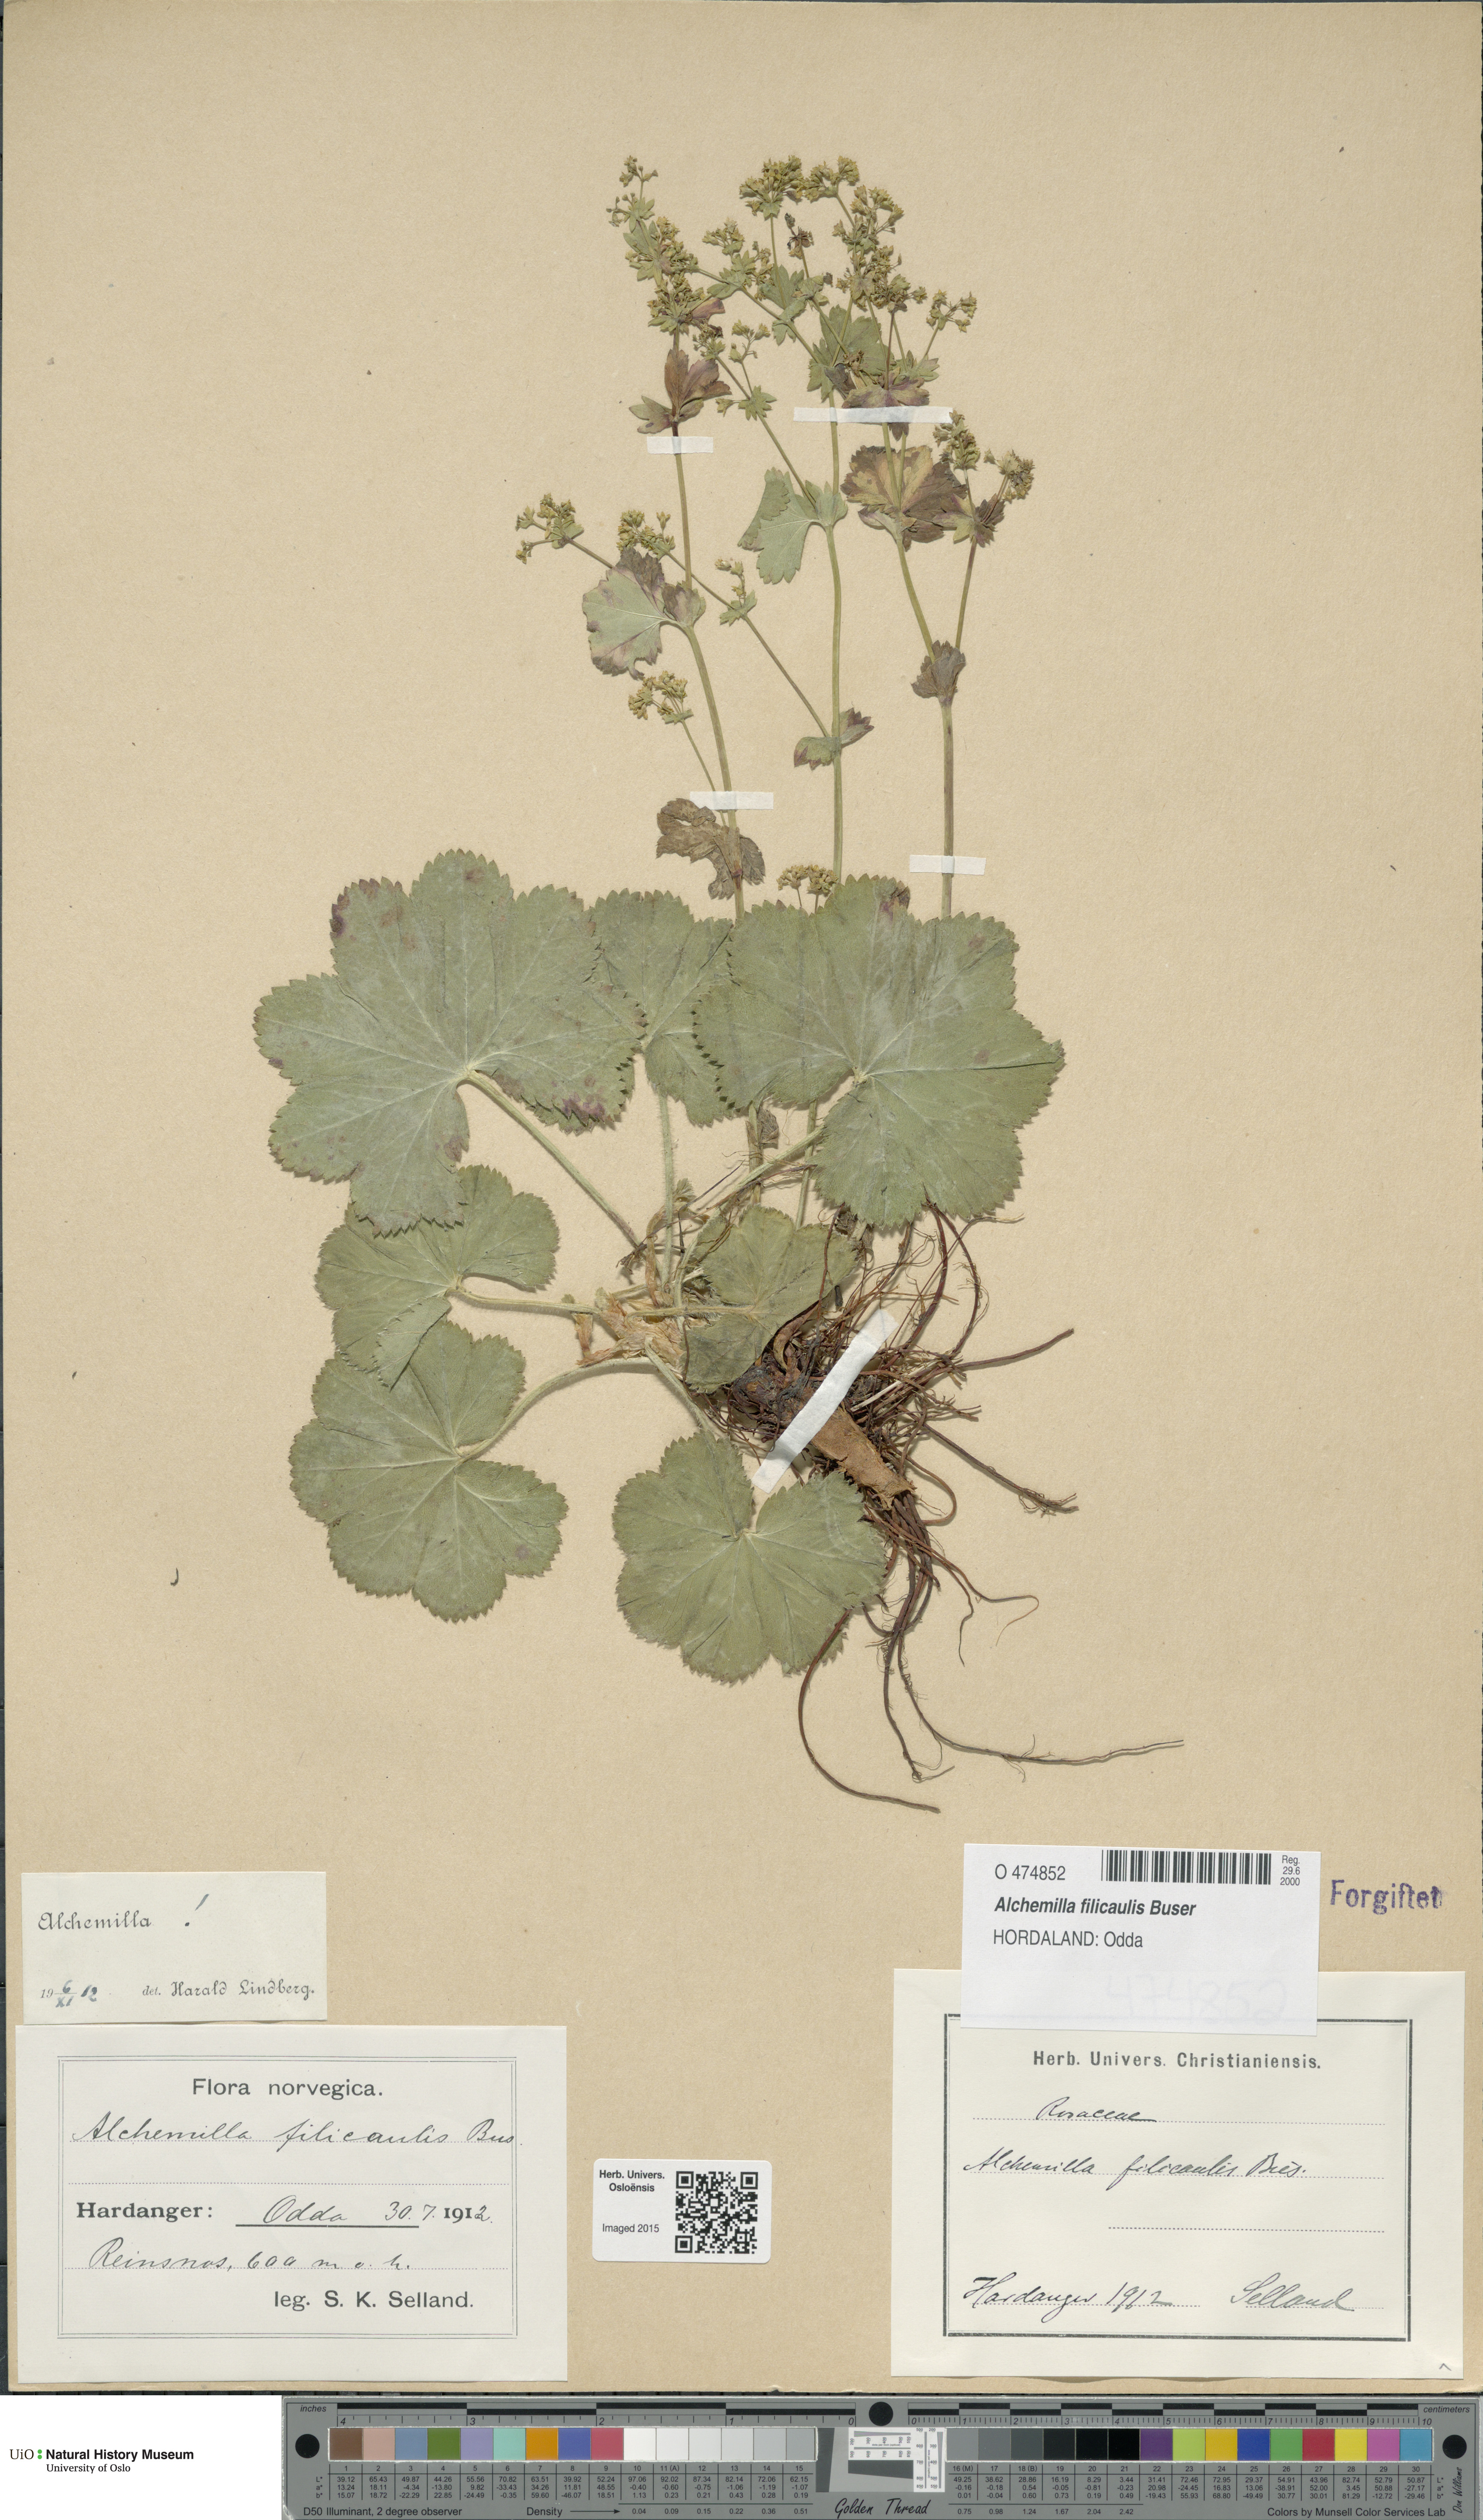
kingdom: Plantae
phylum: Tracheophyta
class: Magnoliopsida
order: Rosales
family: Rosaceae
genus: Alchemilla
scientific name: Alchemilla filicaulis
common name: Hairy lady's-mantle
